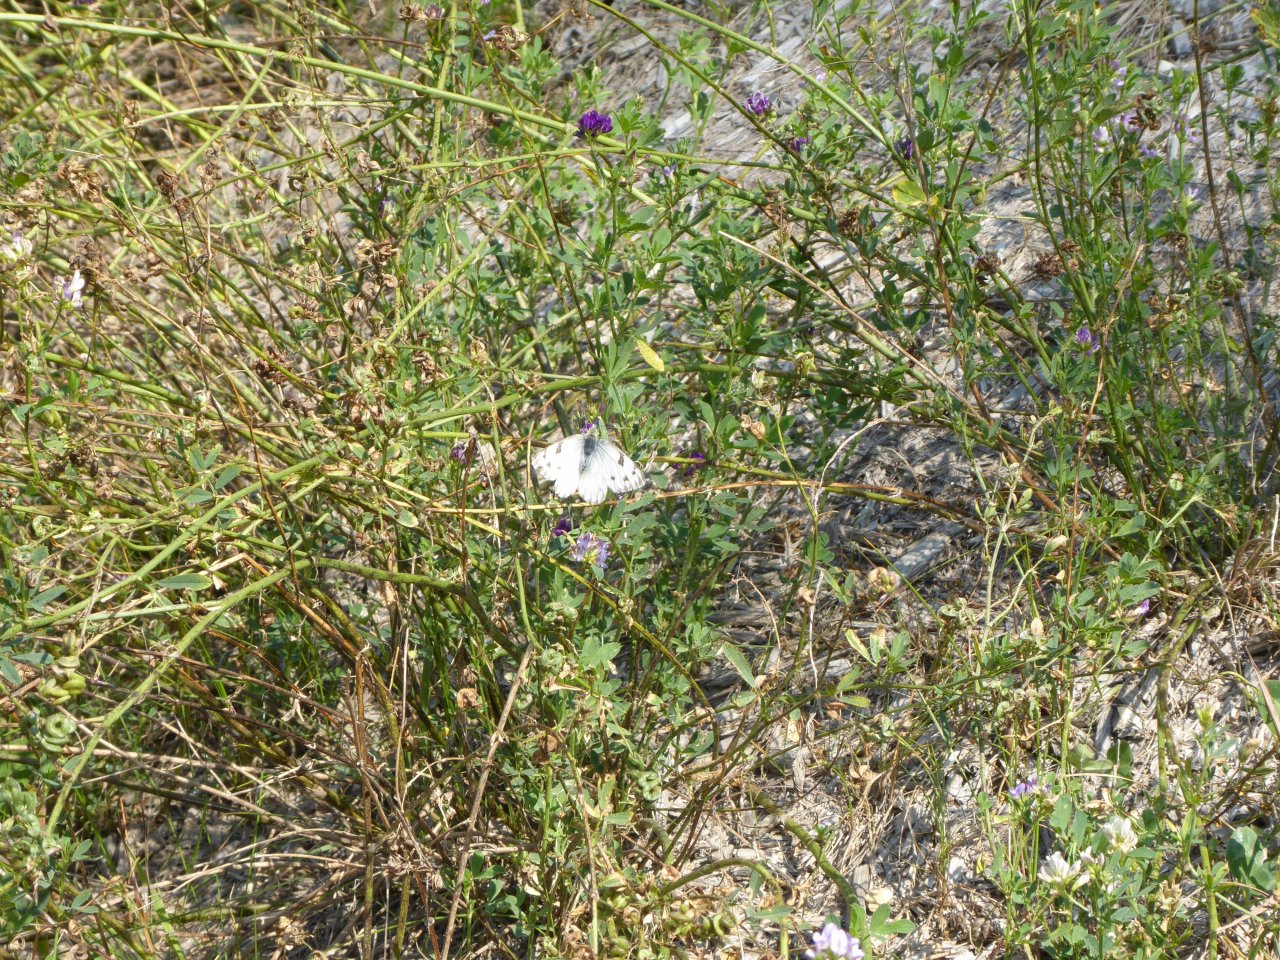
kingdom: Animalia
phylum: Arthropoda
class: Insecta
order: Lepidoptera
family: Pieridae
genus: Pontia
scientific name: Pontia occidentalis
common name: Western White
